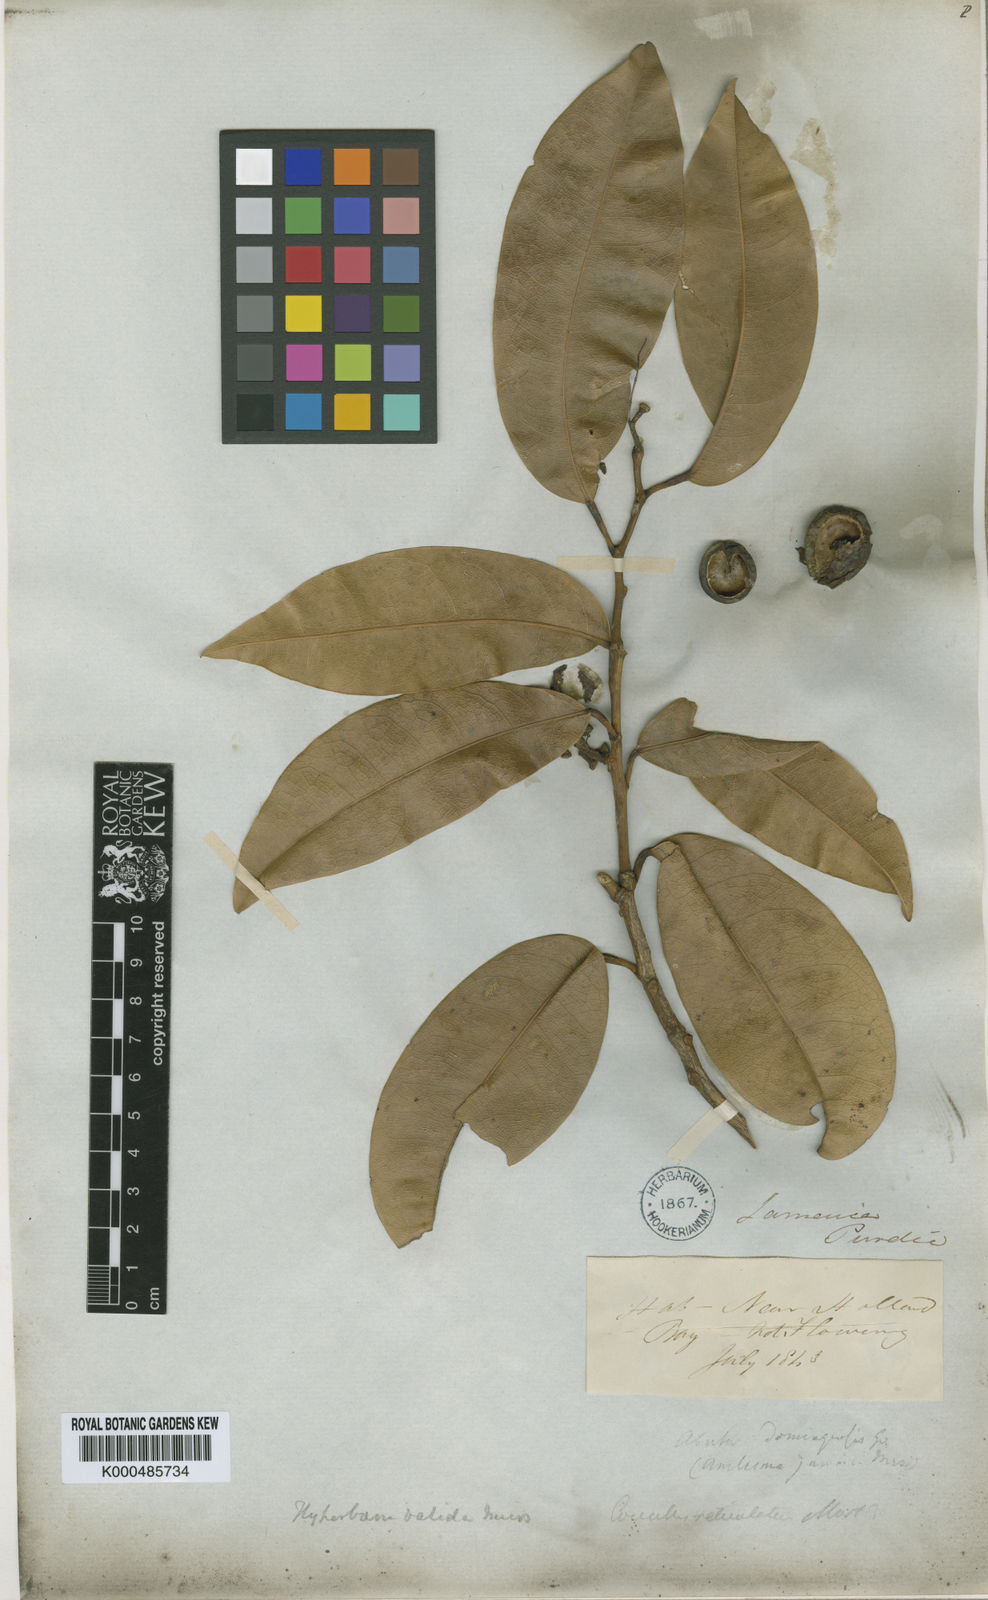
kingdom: Plantae
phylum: Tracheophyta
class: Magnoliopsida
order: Ranunculales
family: Menispermaceae
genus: Hyperbaena
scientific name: Hyperbaena valida
